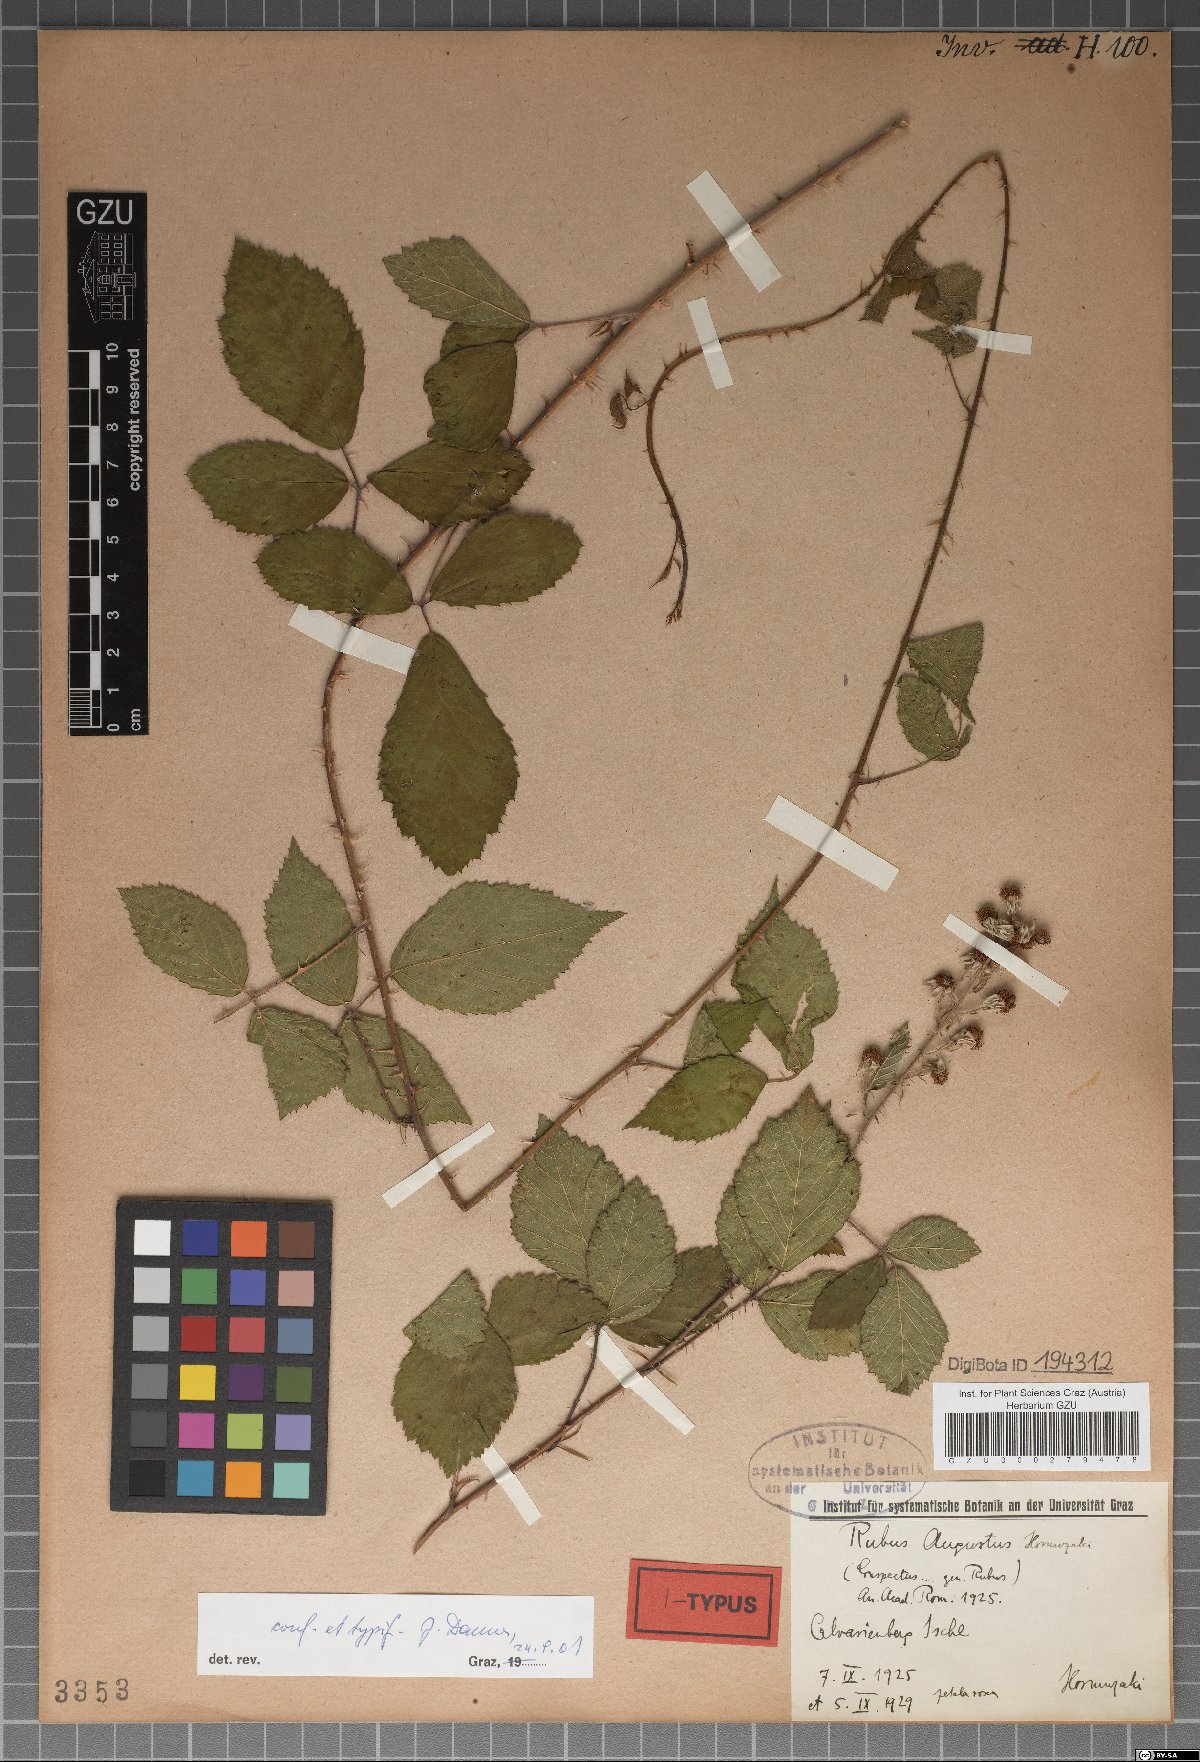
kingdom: Plantae
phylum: Tracheophyta
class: Magnoliopsida
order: Rosales
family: Rosaceae
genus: Rubus
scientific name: Rubus augustus
